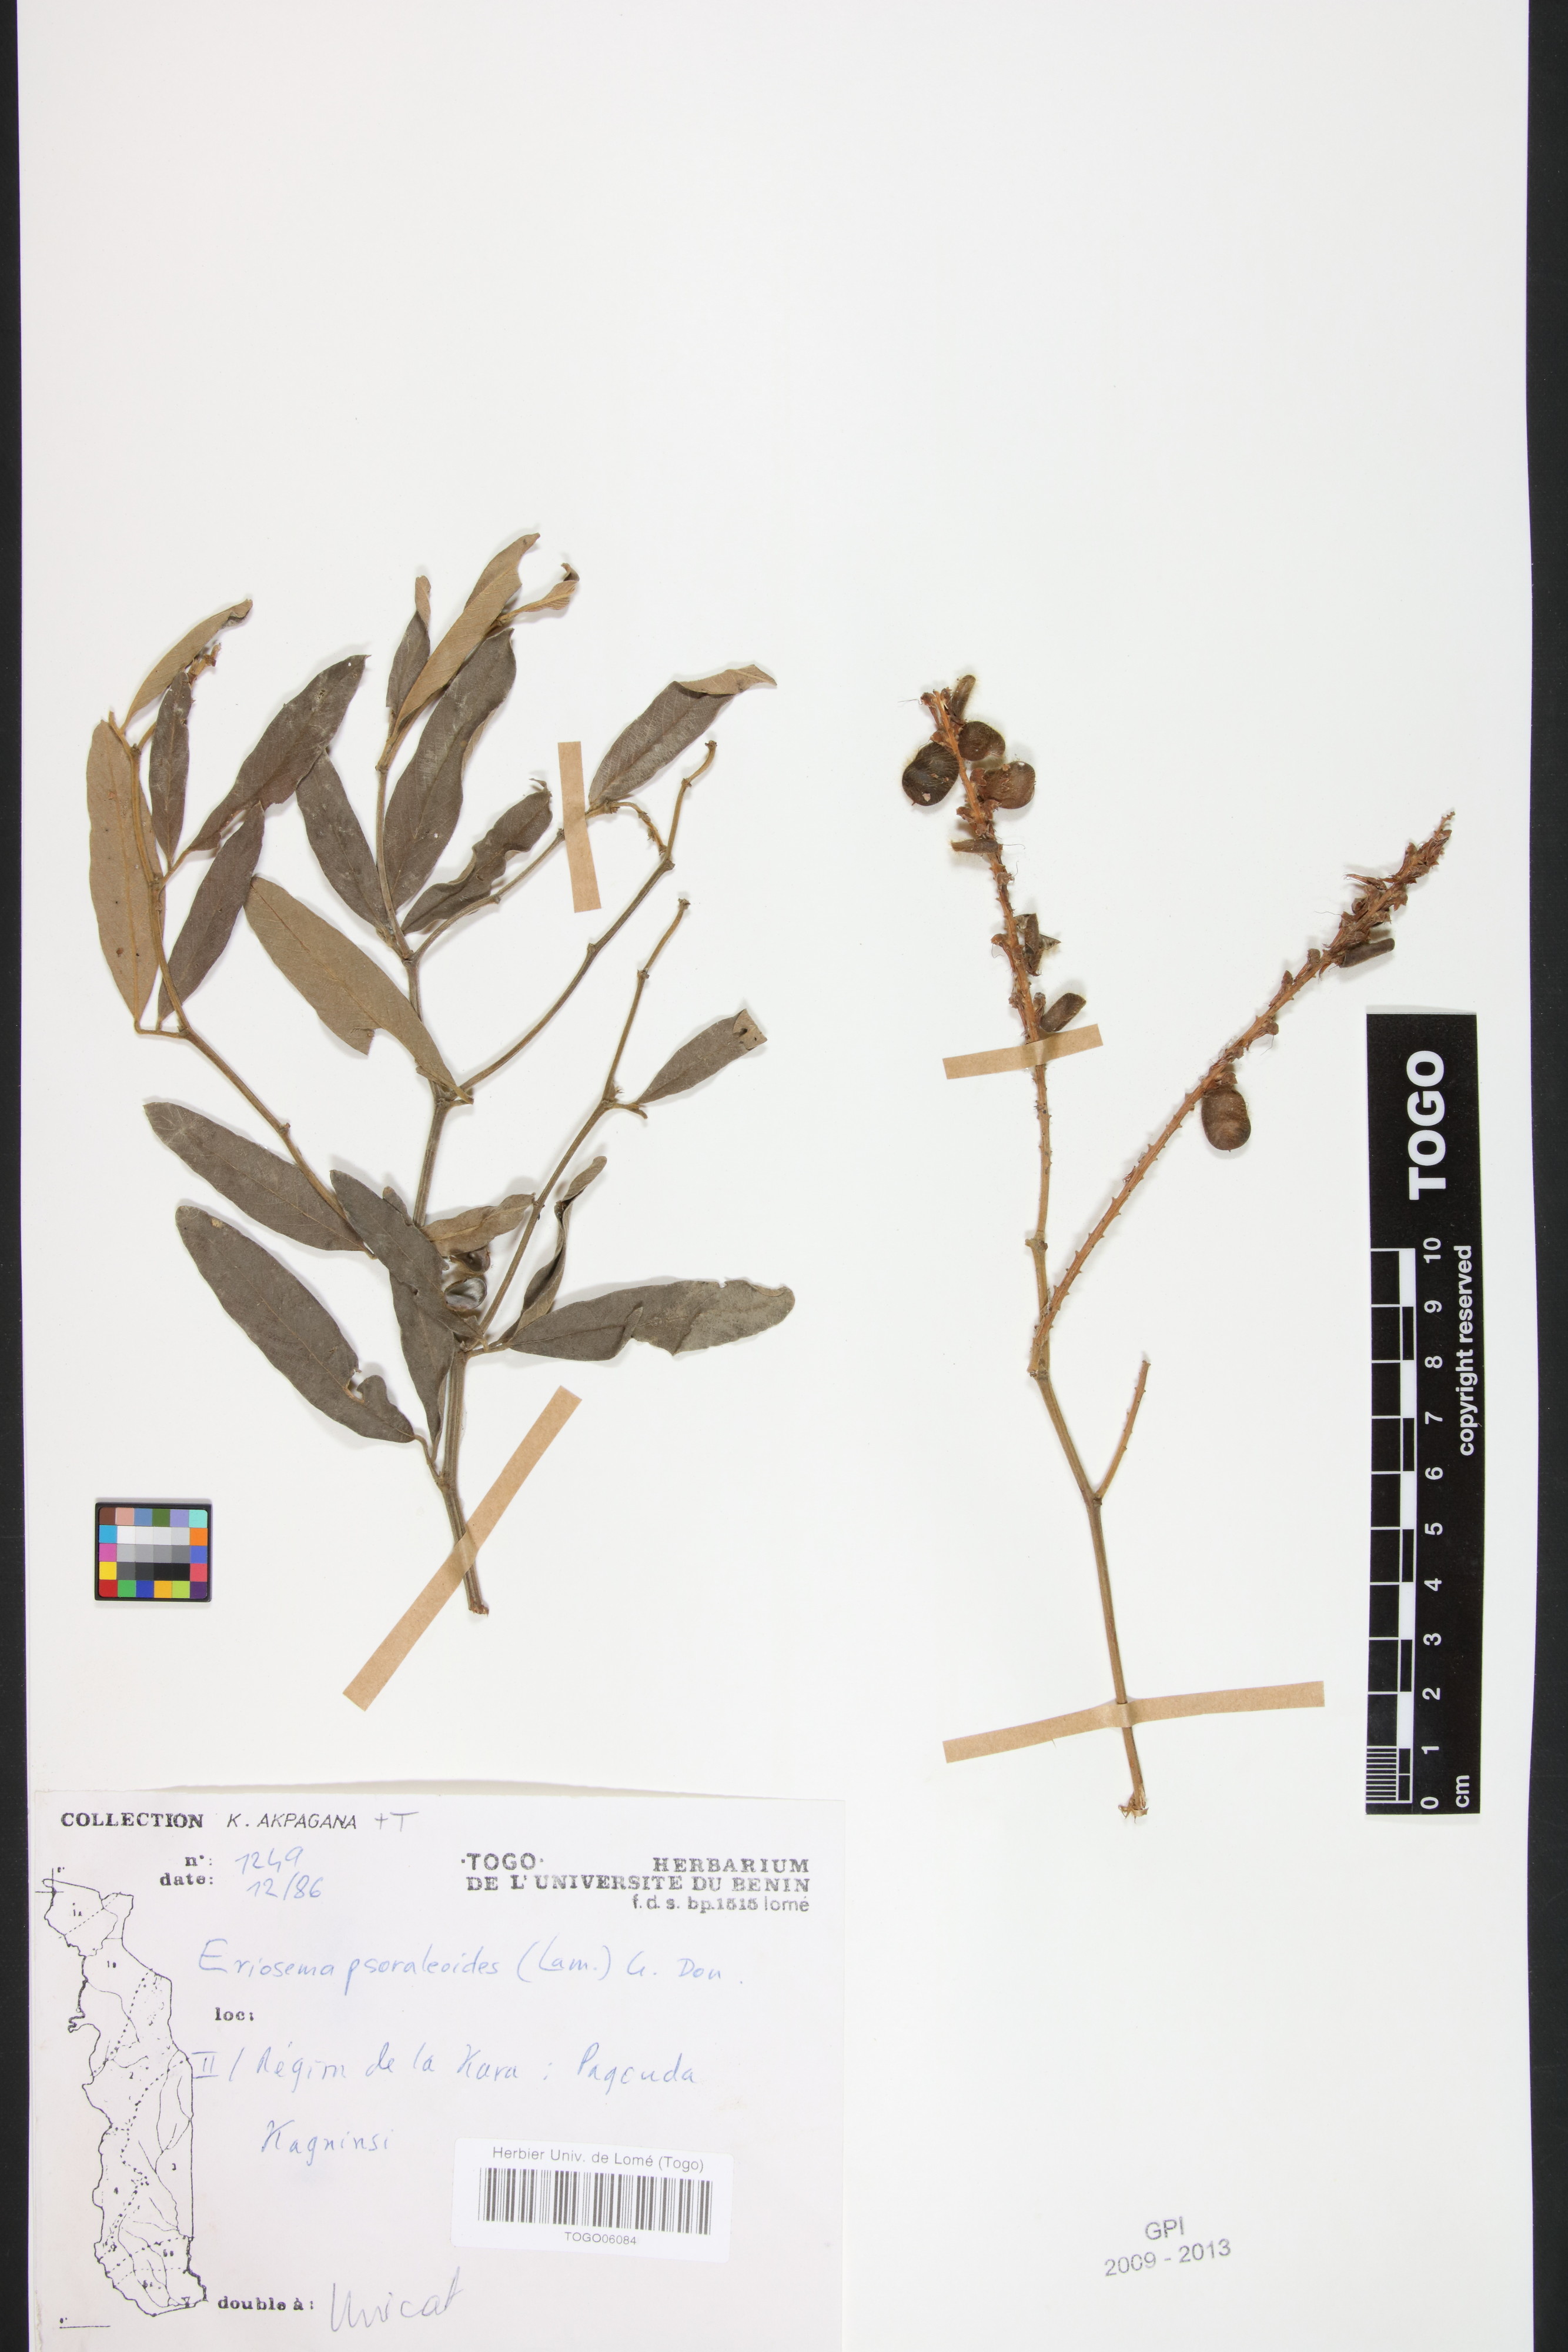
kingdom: Plantae
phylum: Tracheophyta
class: Magnoliopsida
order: Fabales
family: Fabaceae
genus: Eriosema
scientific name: Eriosema psoraleoides
